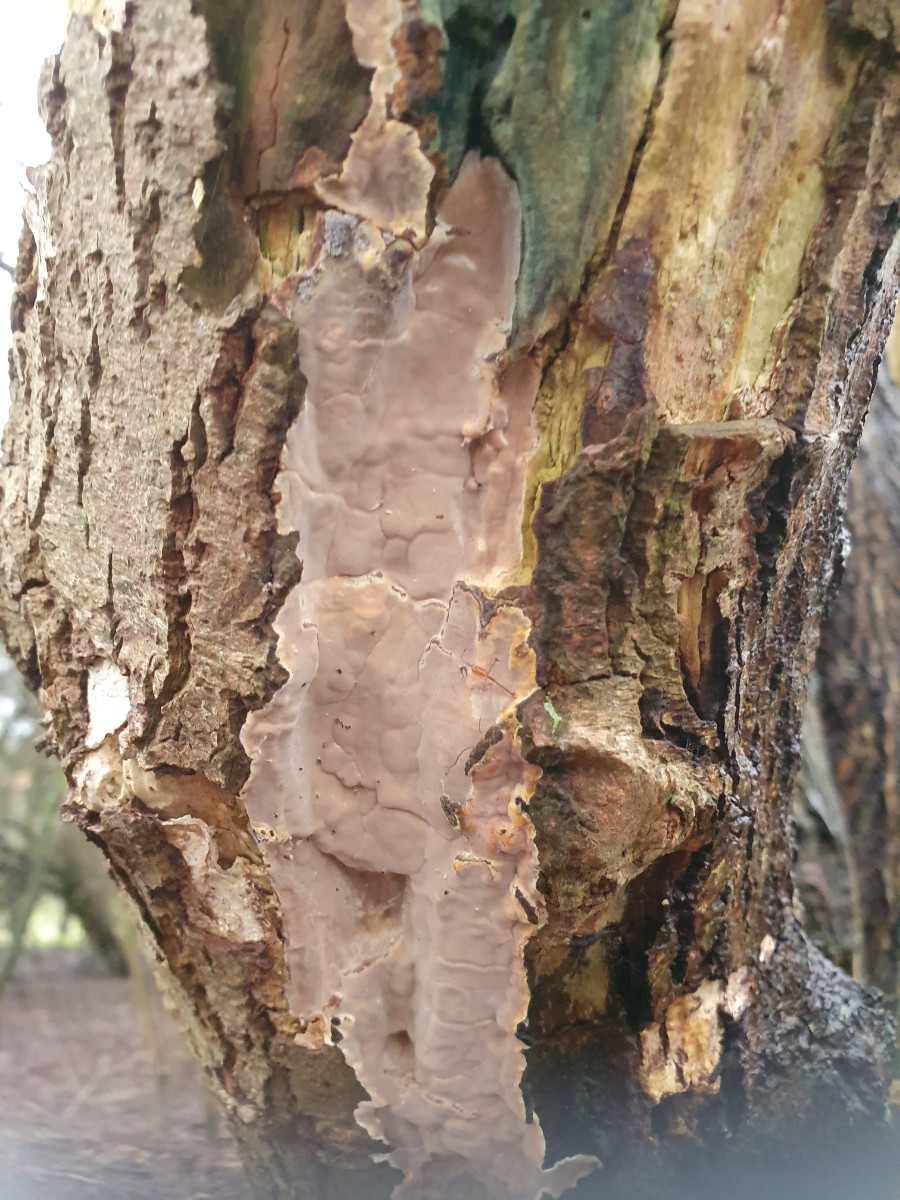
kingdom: Fungi
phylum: Basidiomycota
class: Agaricomycetes
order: Corticiales
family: Corticiaceae
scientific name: Corticiaceae
